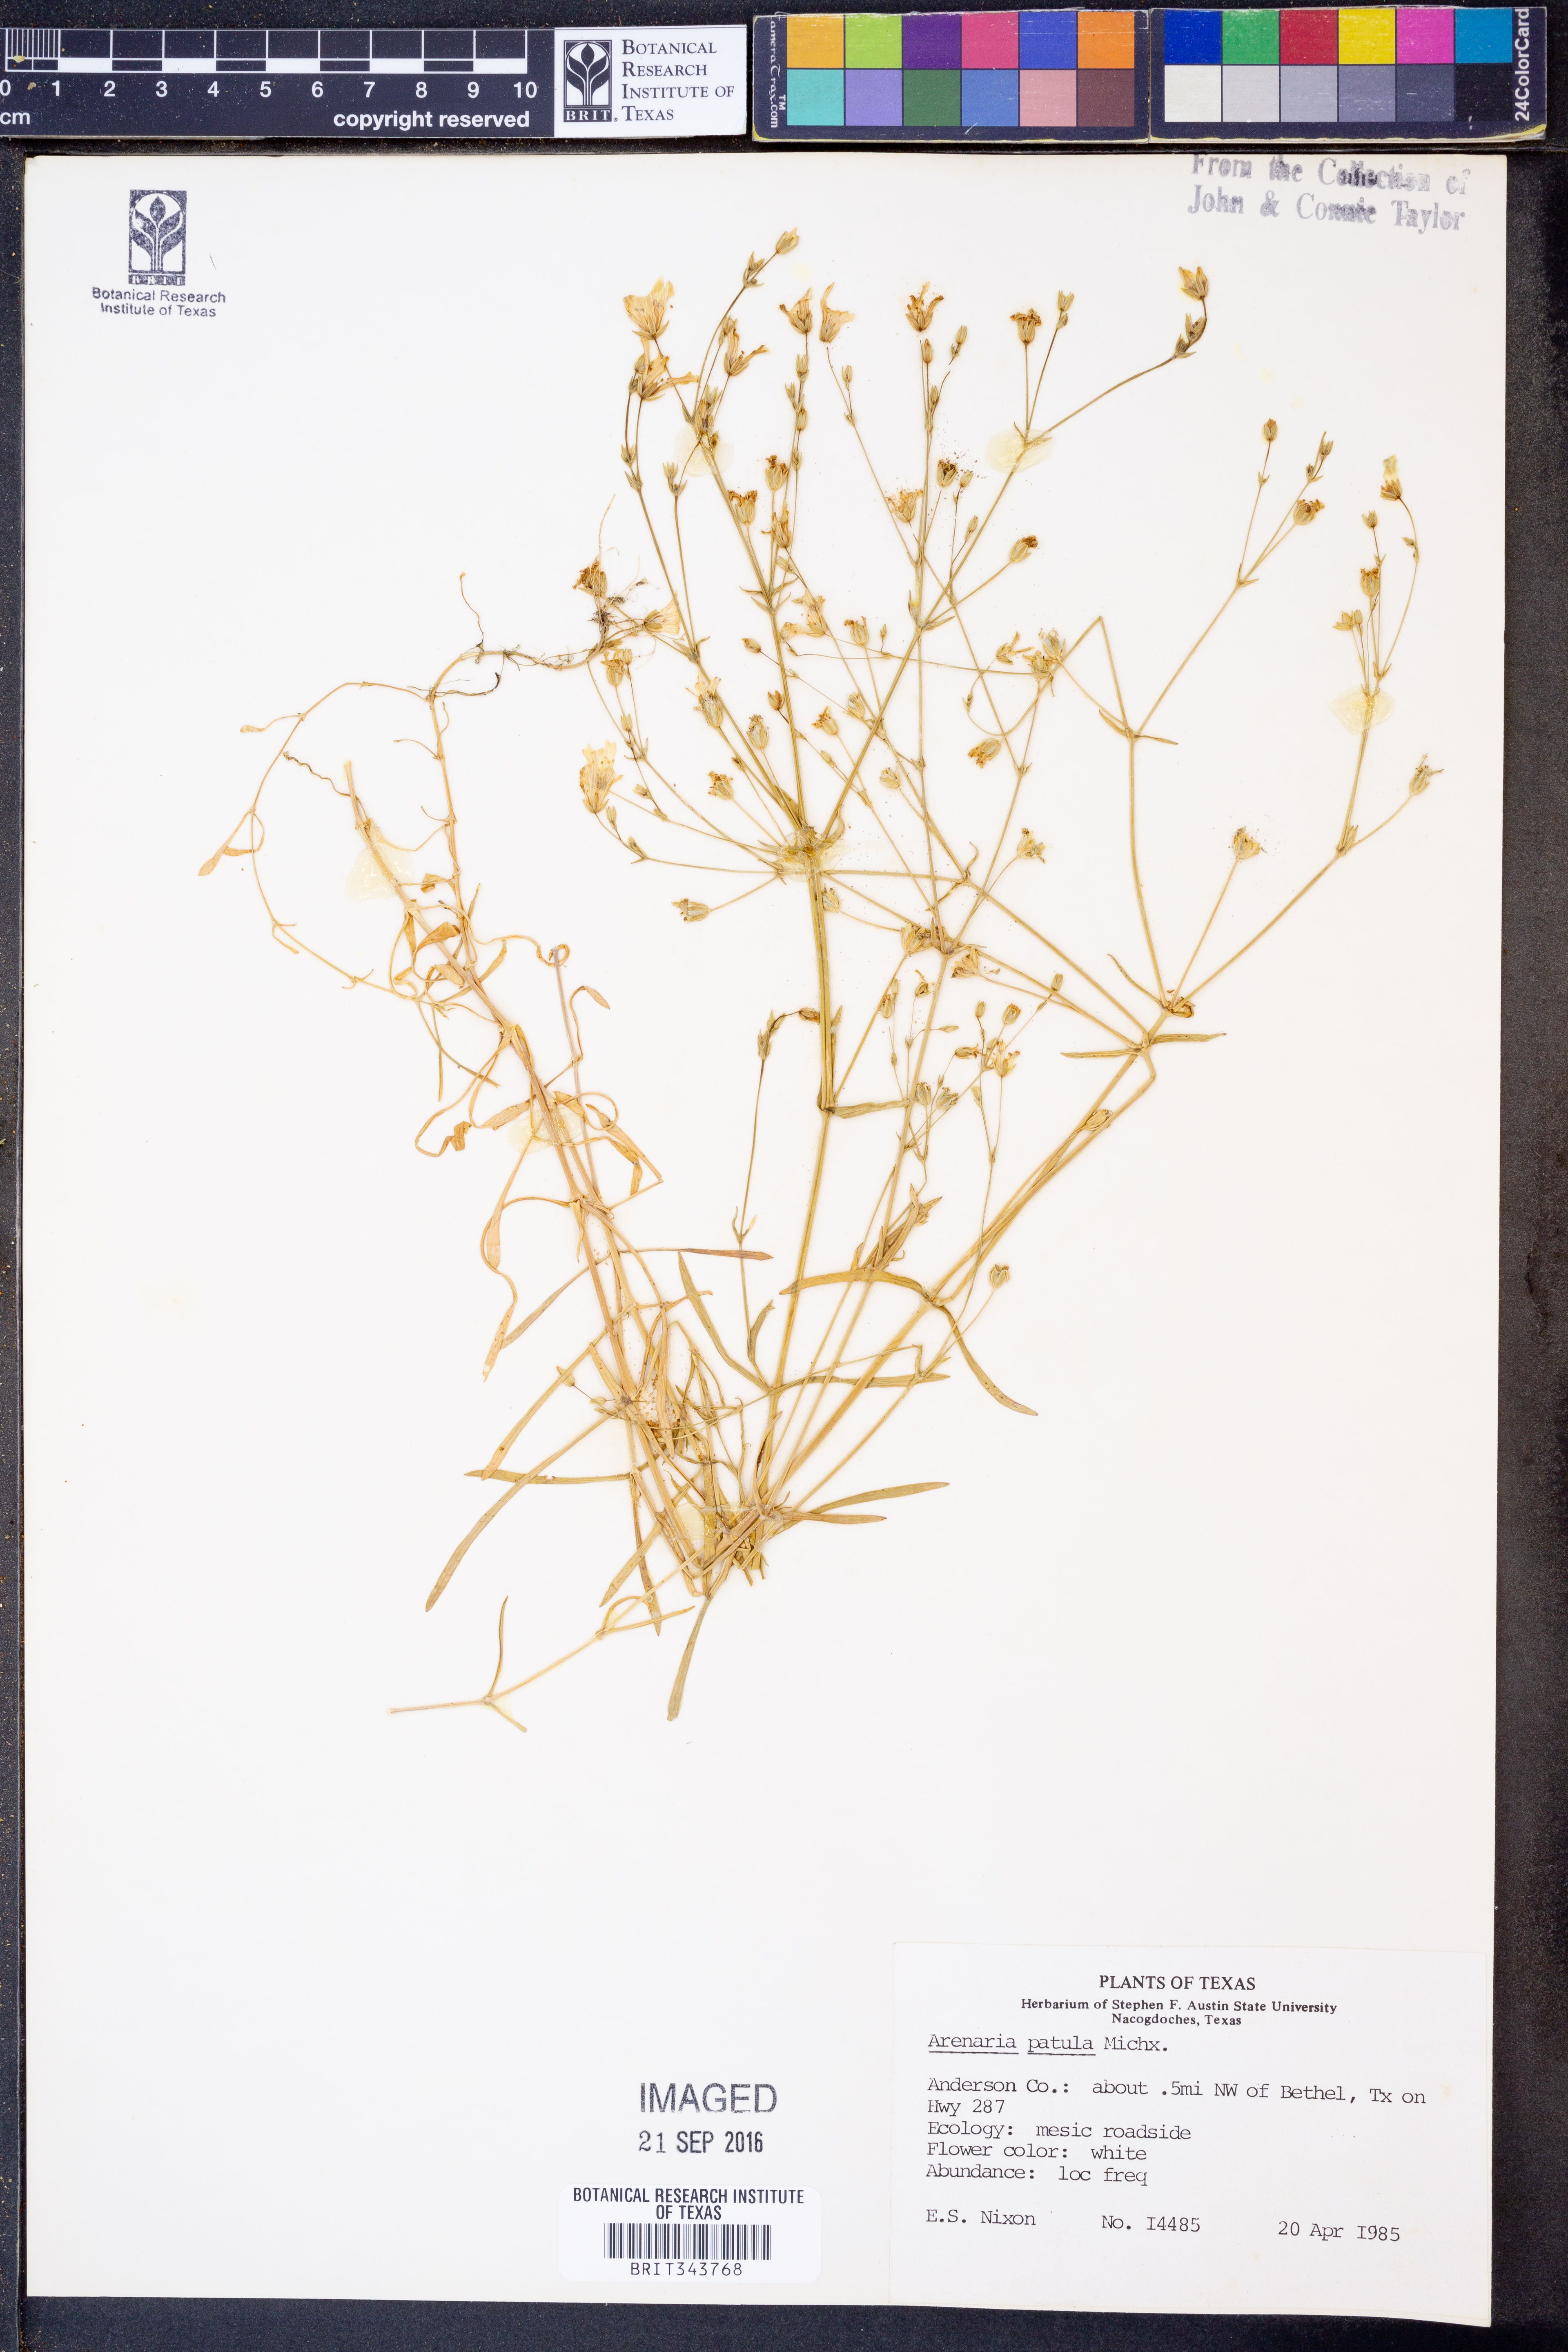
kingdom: Plantae
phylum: Tracheophyta
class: Magnoliopsida
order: Caryophyllales
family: Caryophyllaceae
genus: Mononeuria
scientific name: Mononeuria patula
